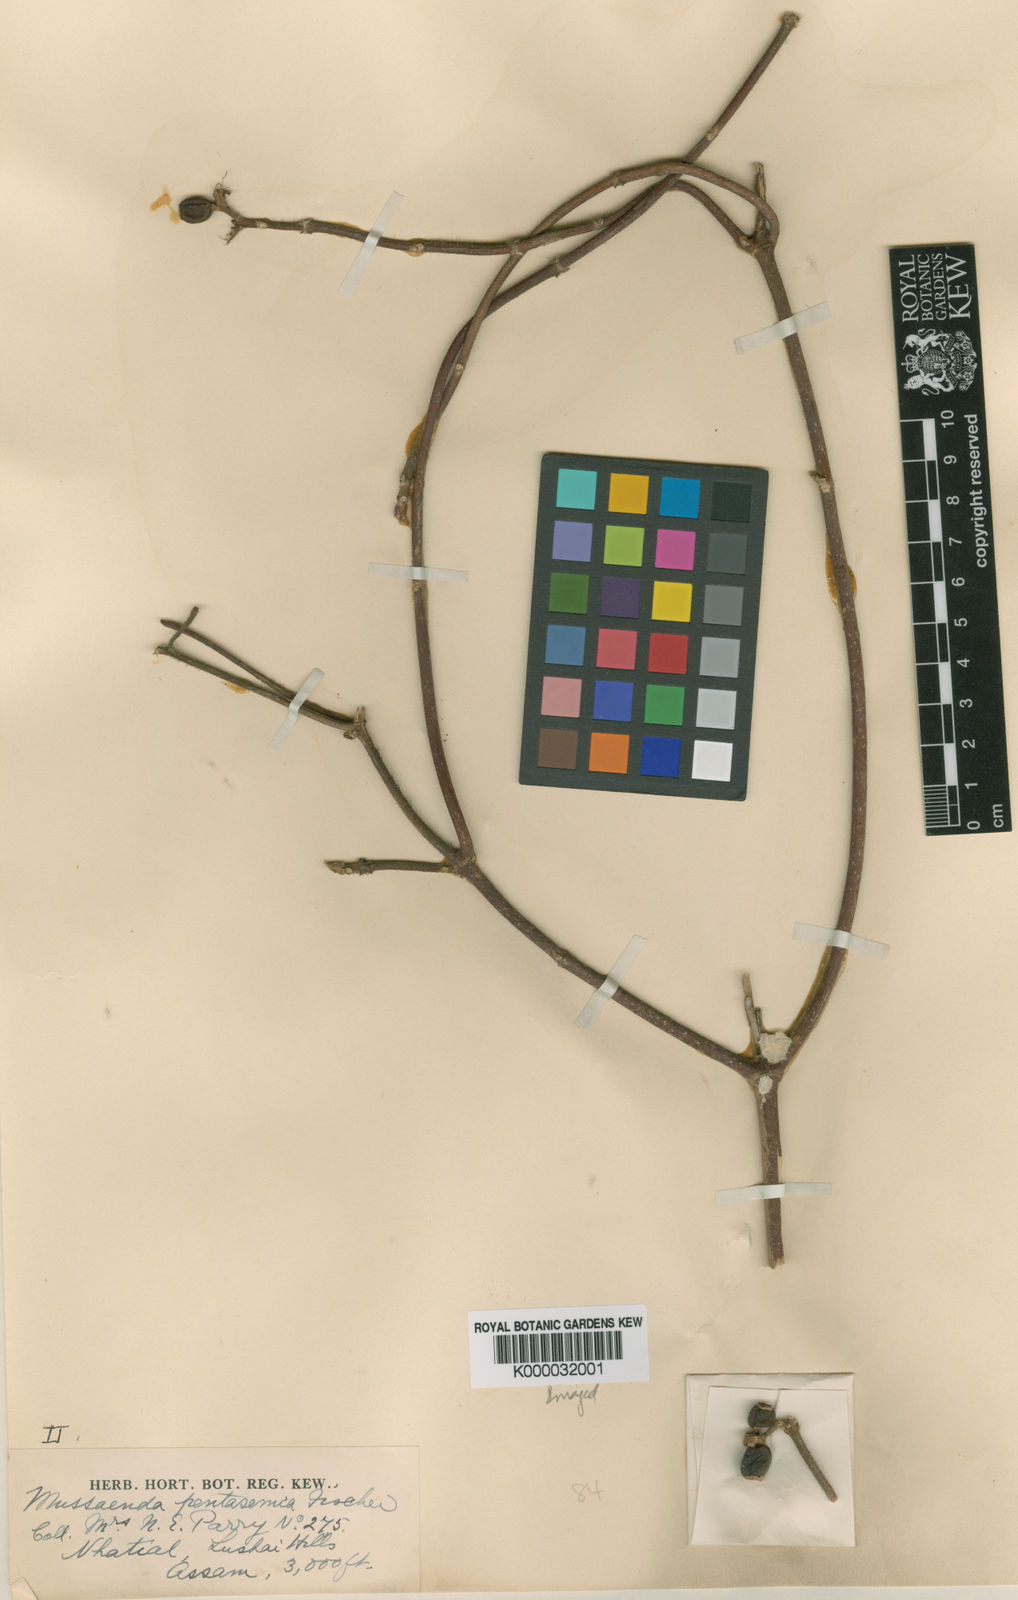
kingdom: Plantae
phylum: Tracheophyta
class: Magnoliopsida
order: Gentianales
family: Rubiaceae
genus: Mussaenda
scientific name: Mussaenda macrophylla
